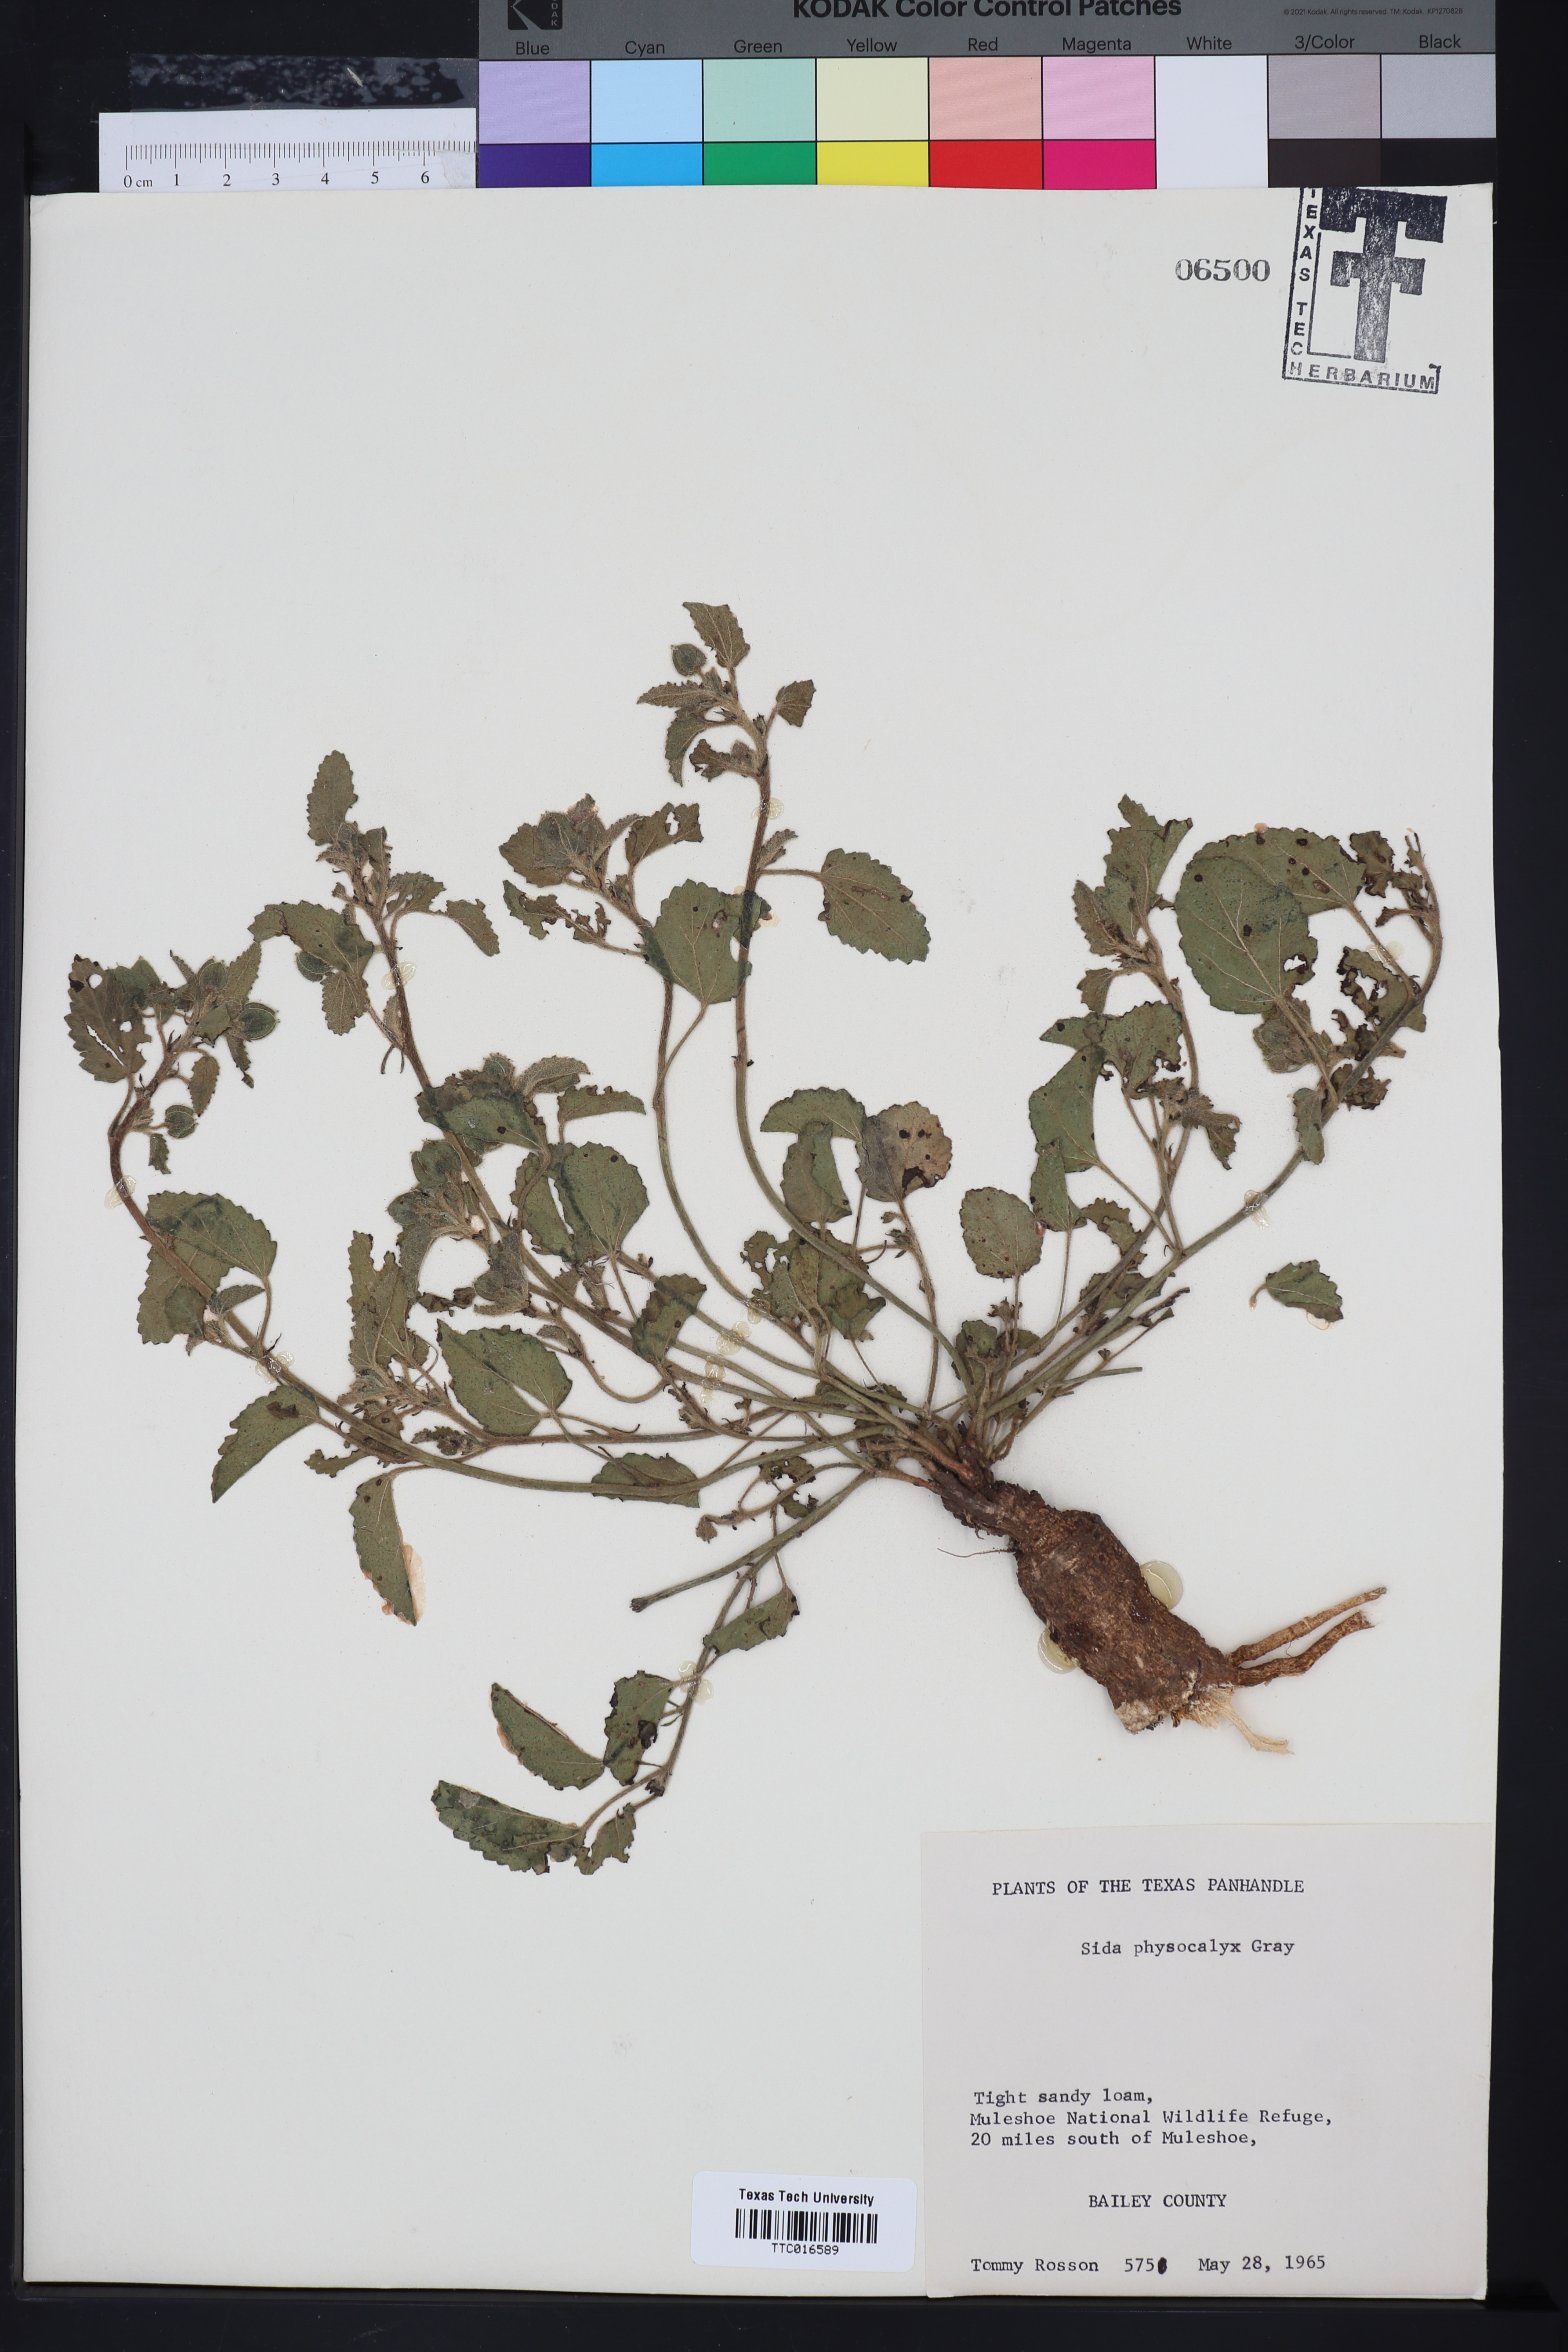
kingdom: Plantae
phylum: Tracheophyta
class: Magnoliopsida
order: Malvales
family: Malvaceae
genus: Rhynchosida
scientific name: Rhynchosida physocalyx
